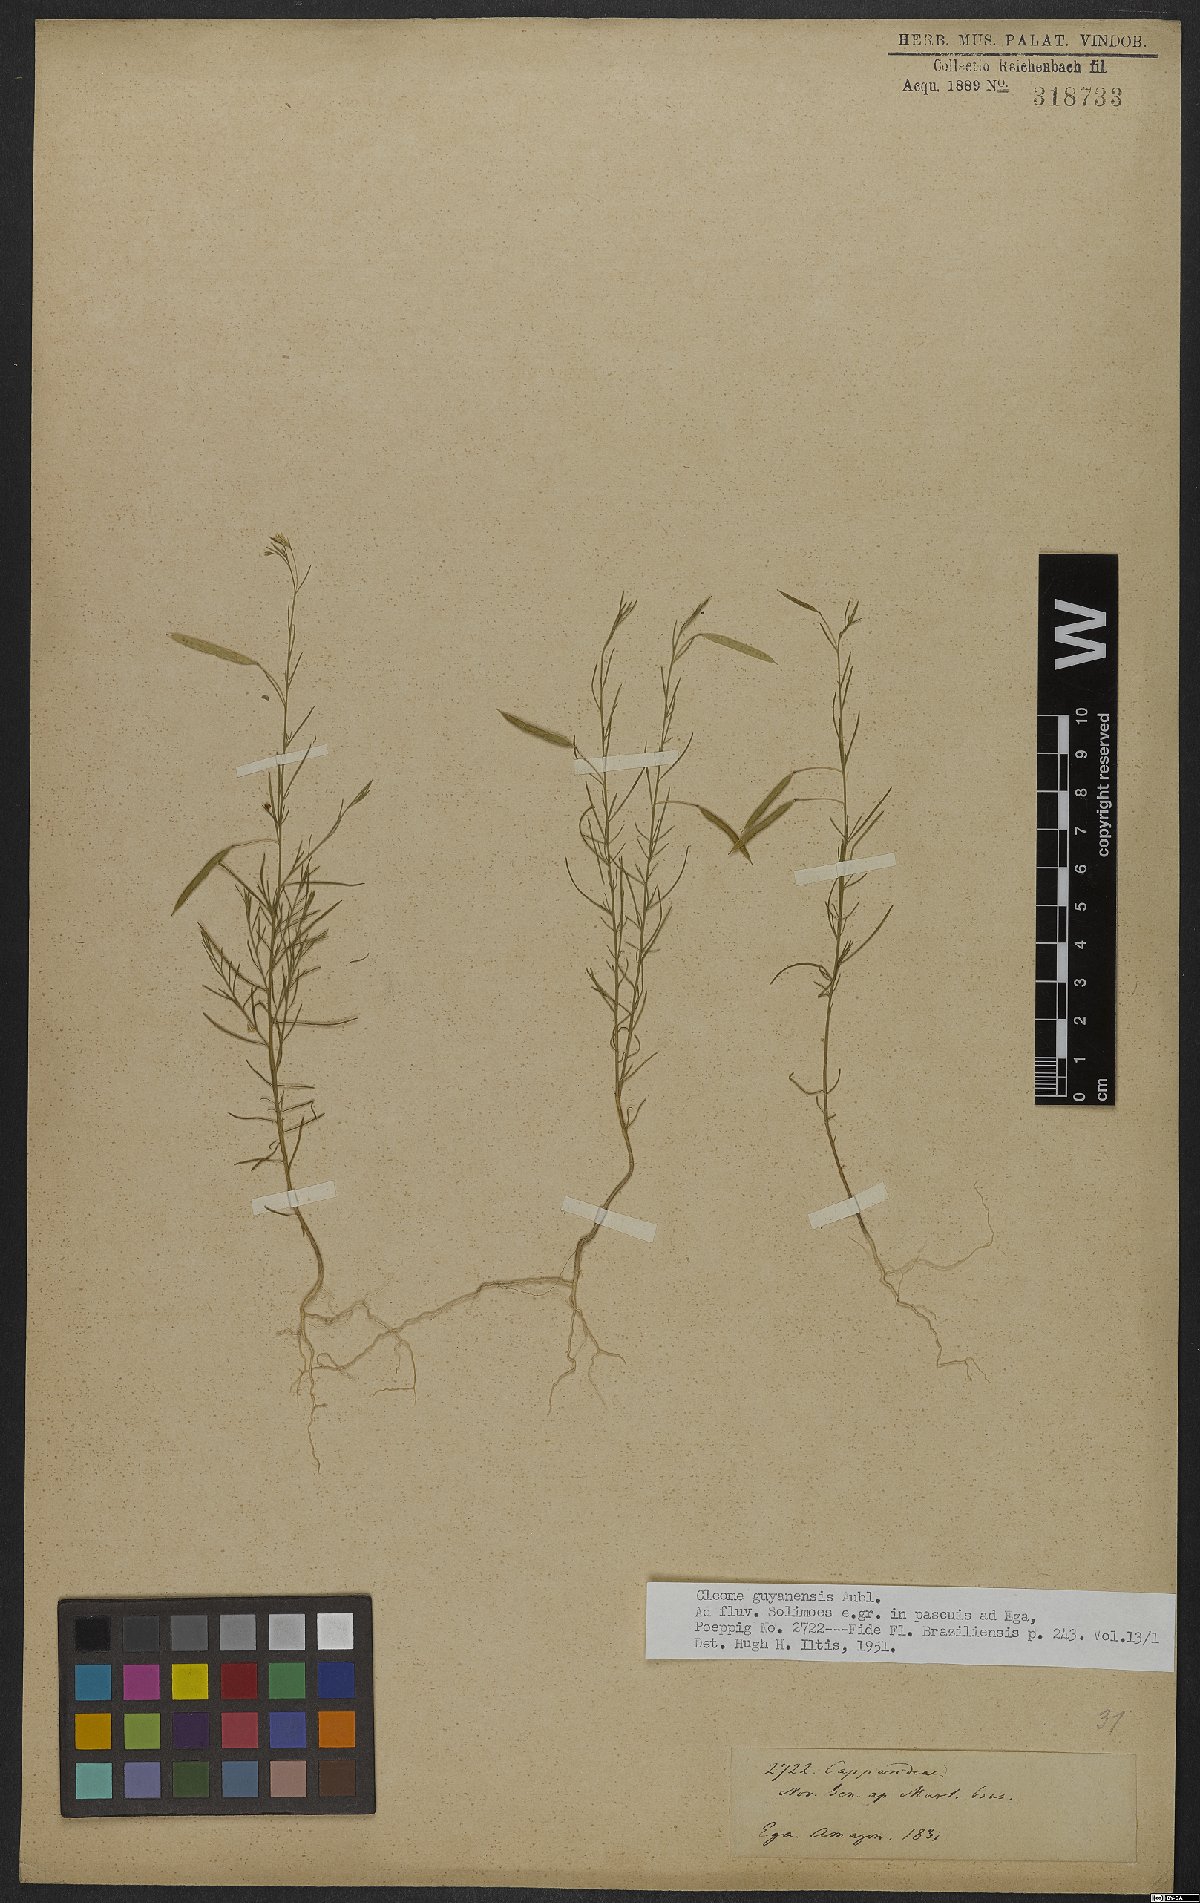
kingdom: Plantae
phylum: Tracheophyta
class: Magnoliopsida
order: Brassicales
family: Cleomaceae
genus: Physostemon
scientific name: Physostemon guianensis
